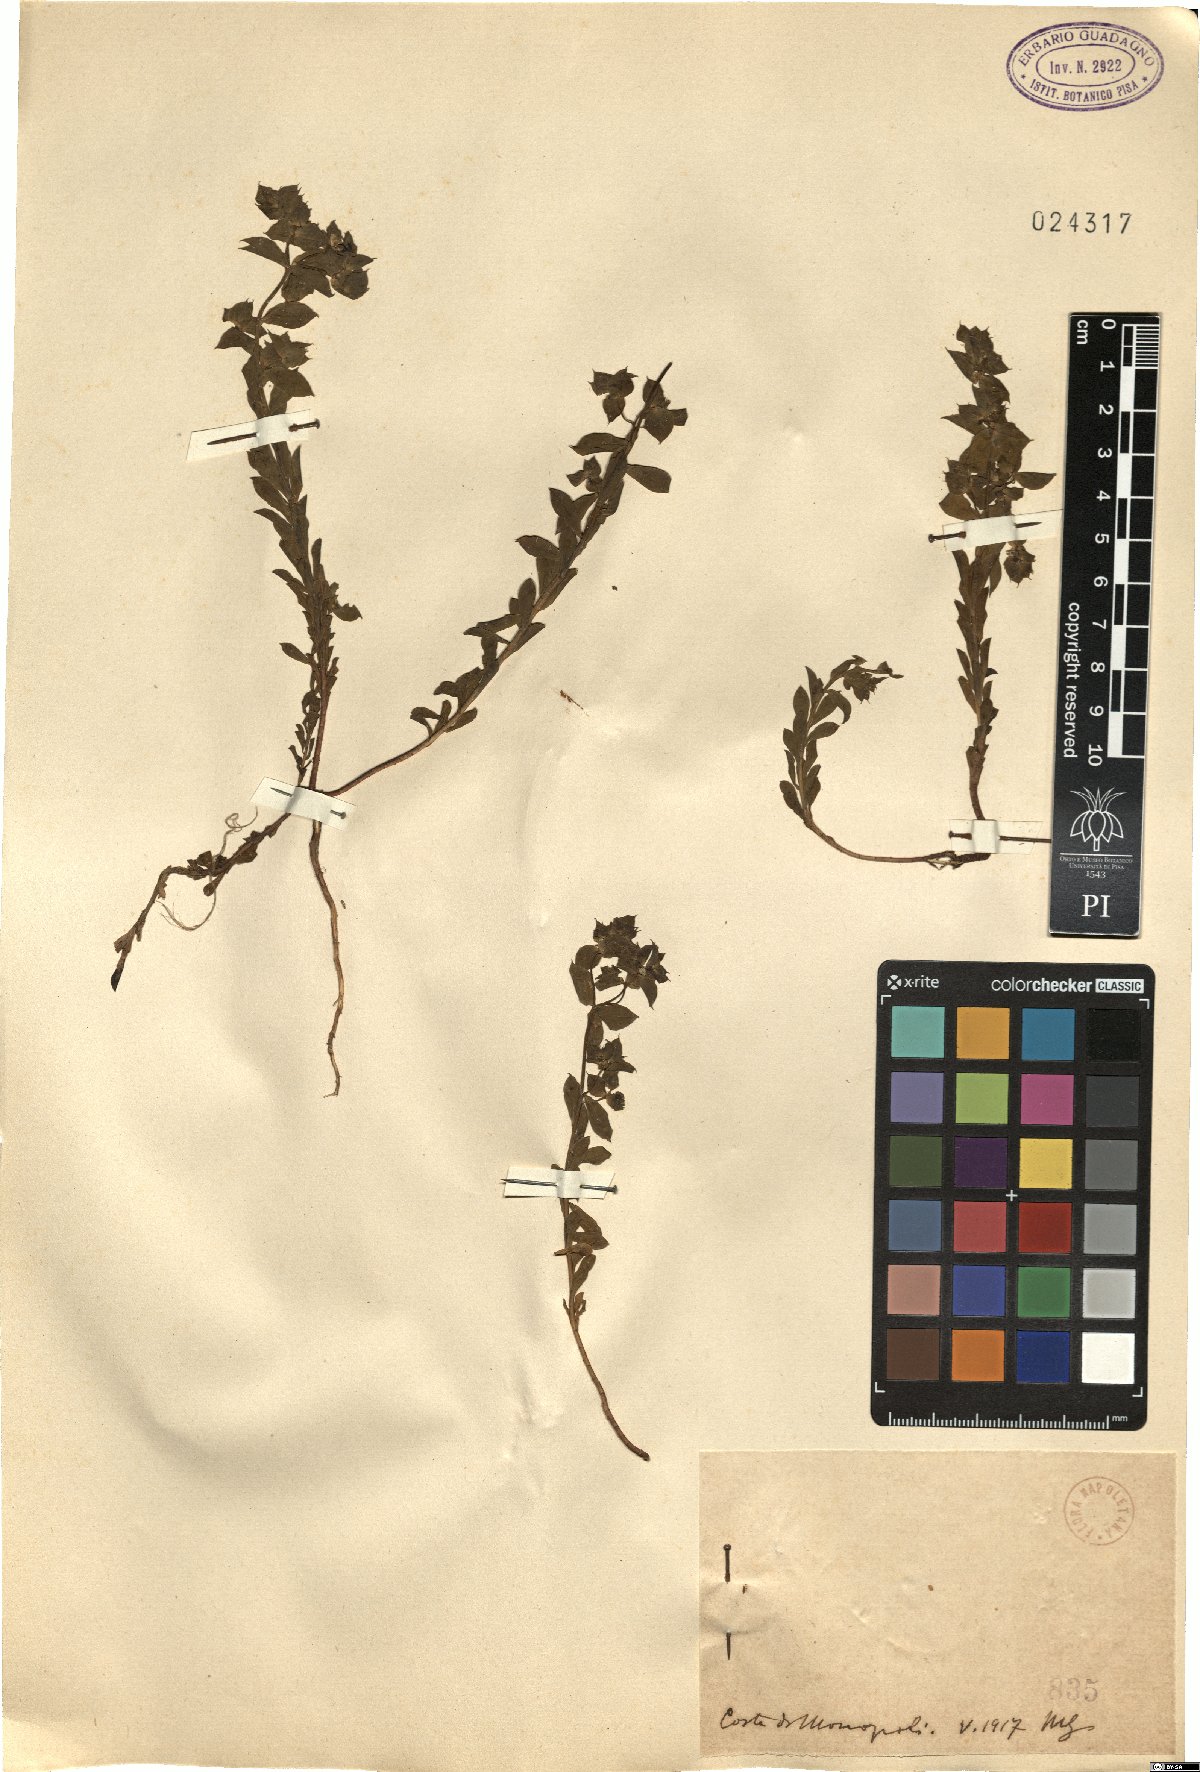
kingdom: Plantae
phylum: Tracheophyta
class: Magnoliopsida
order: Malpighiales
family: Euphorbiaceae
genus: Euphorbia
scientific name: Euphorbia
